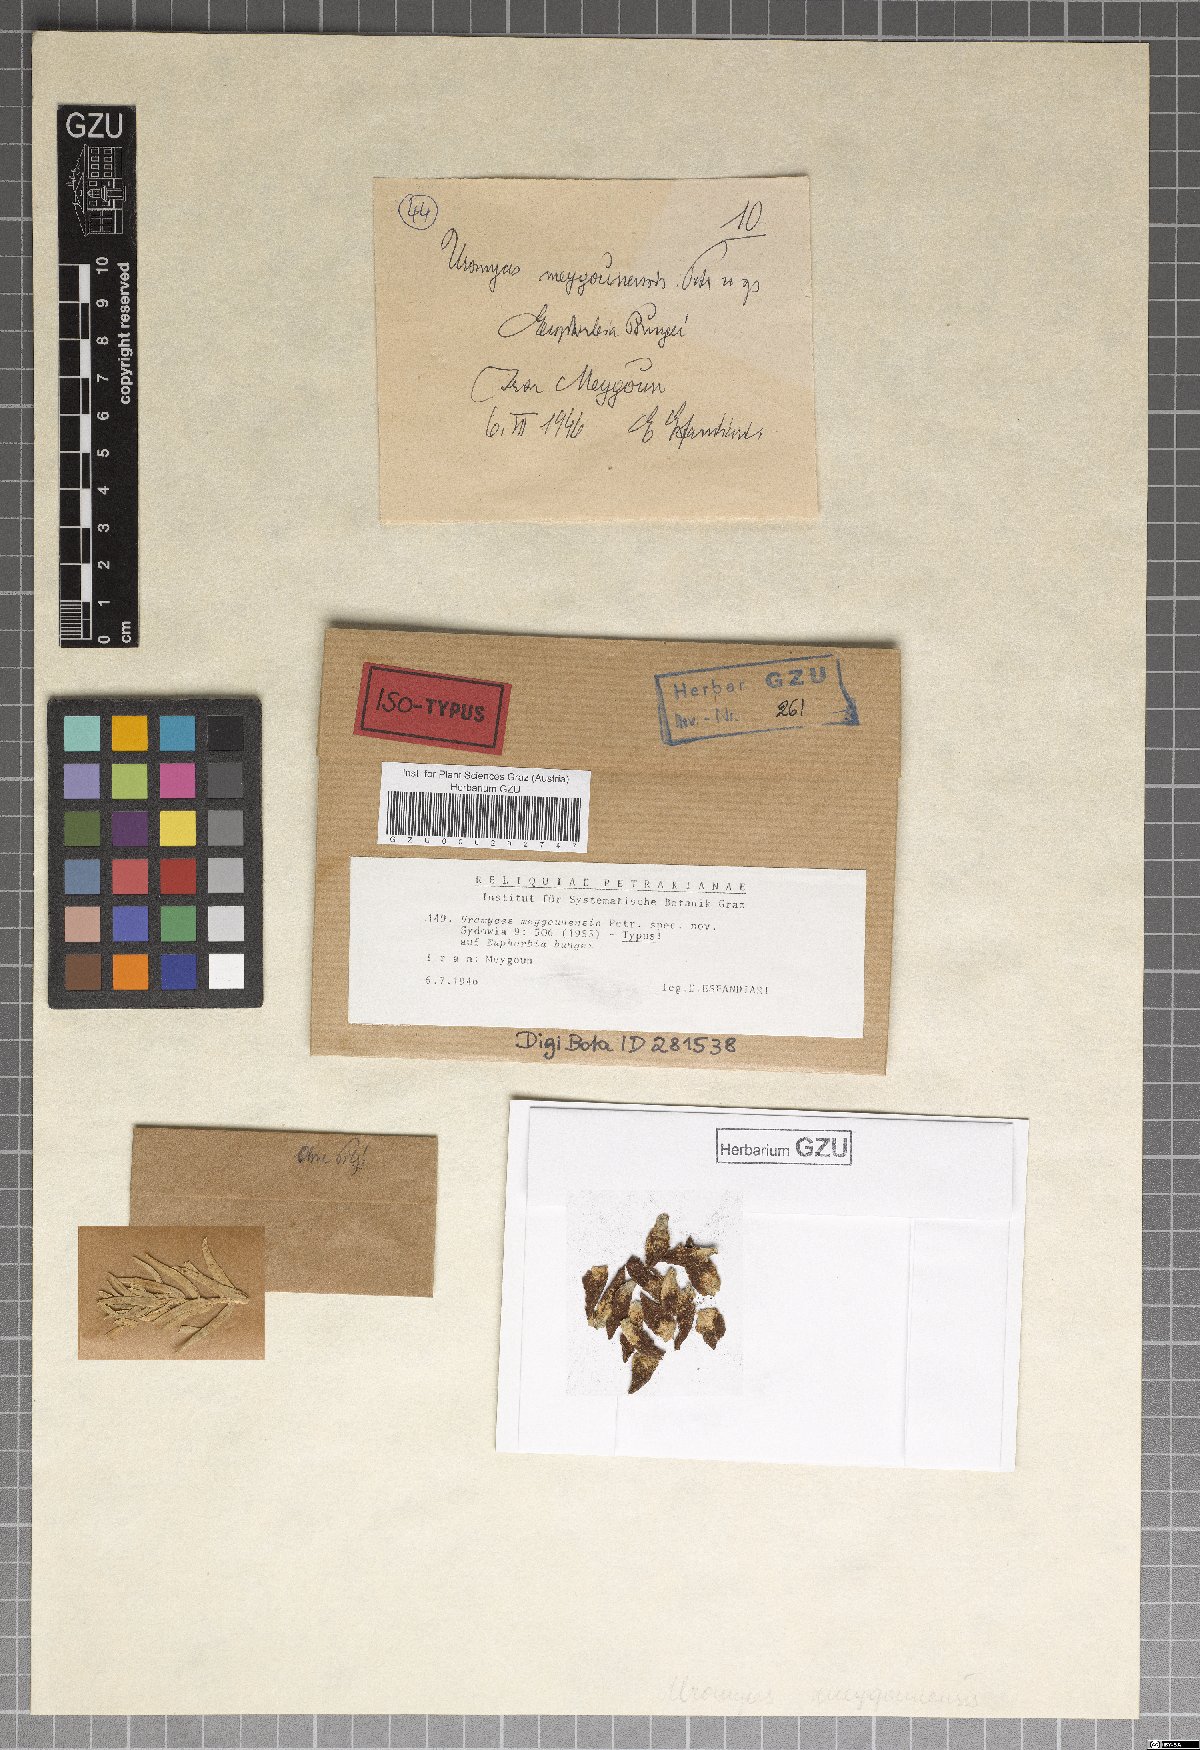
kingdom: Fungi
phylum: Basidiomycota
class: Pucciniomycetes
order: Pucciniales
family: Pucciniaceae
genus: Uromyces
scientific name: Uromyces meygounensis
